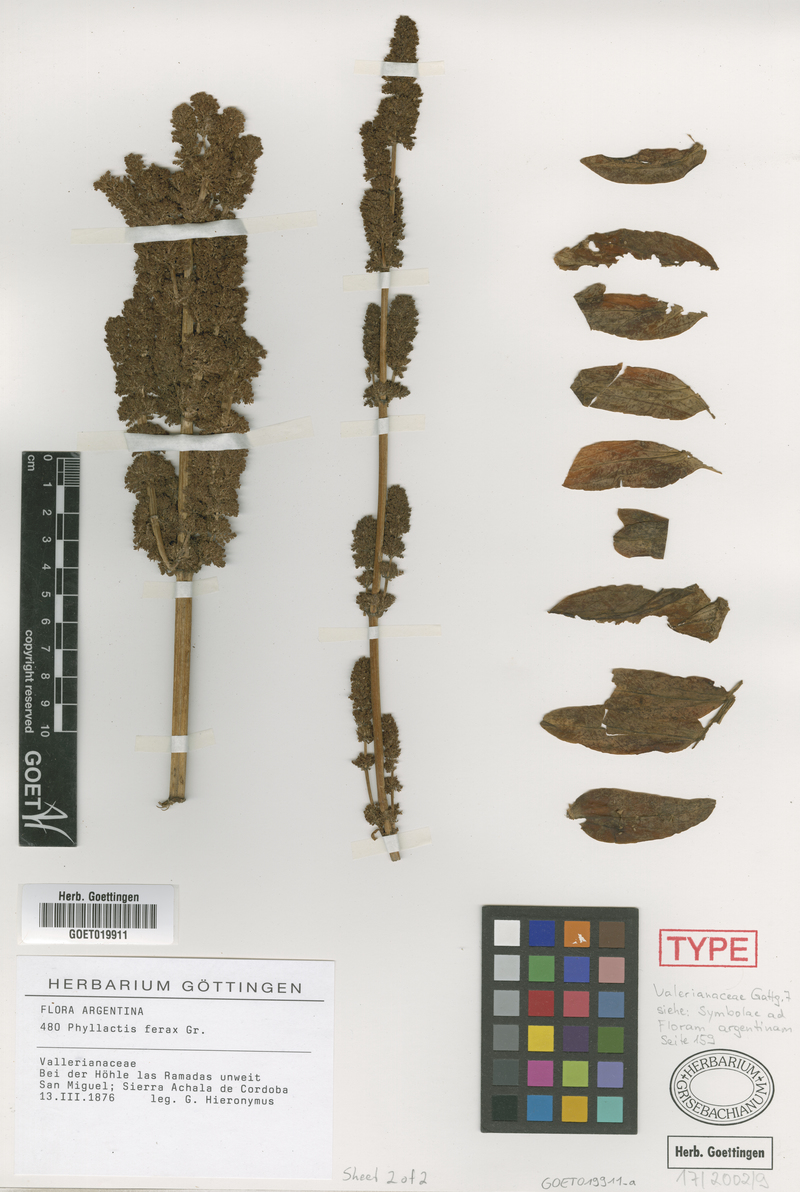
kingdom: Plantae
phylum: Tracheophyta
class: Magnoliopsida
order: Dipsacales
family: Caprifoliaceae
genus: Valeriana
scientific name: Valeriana ferax
